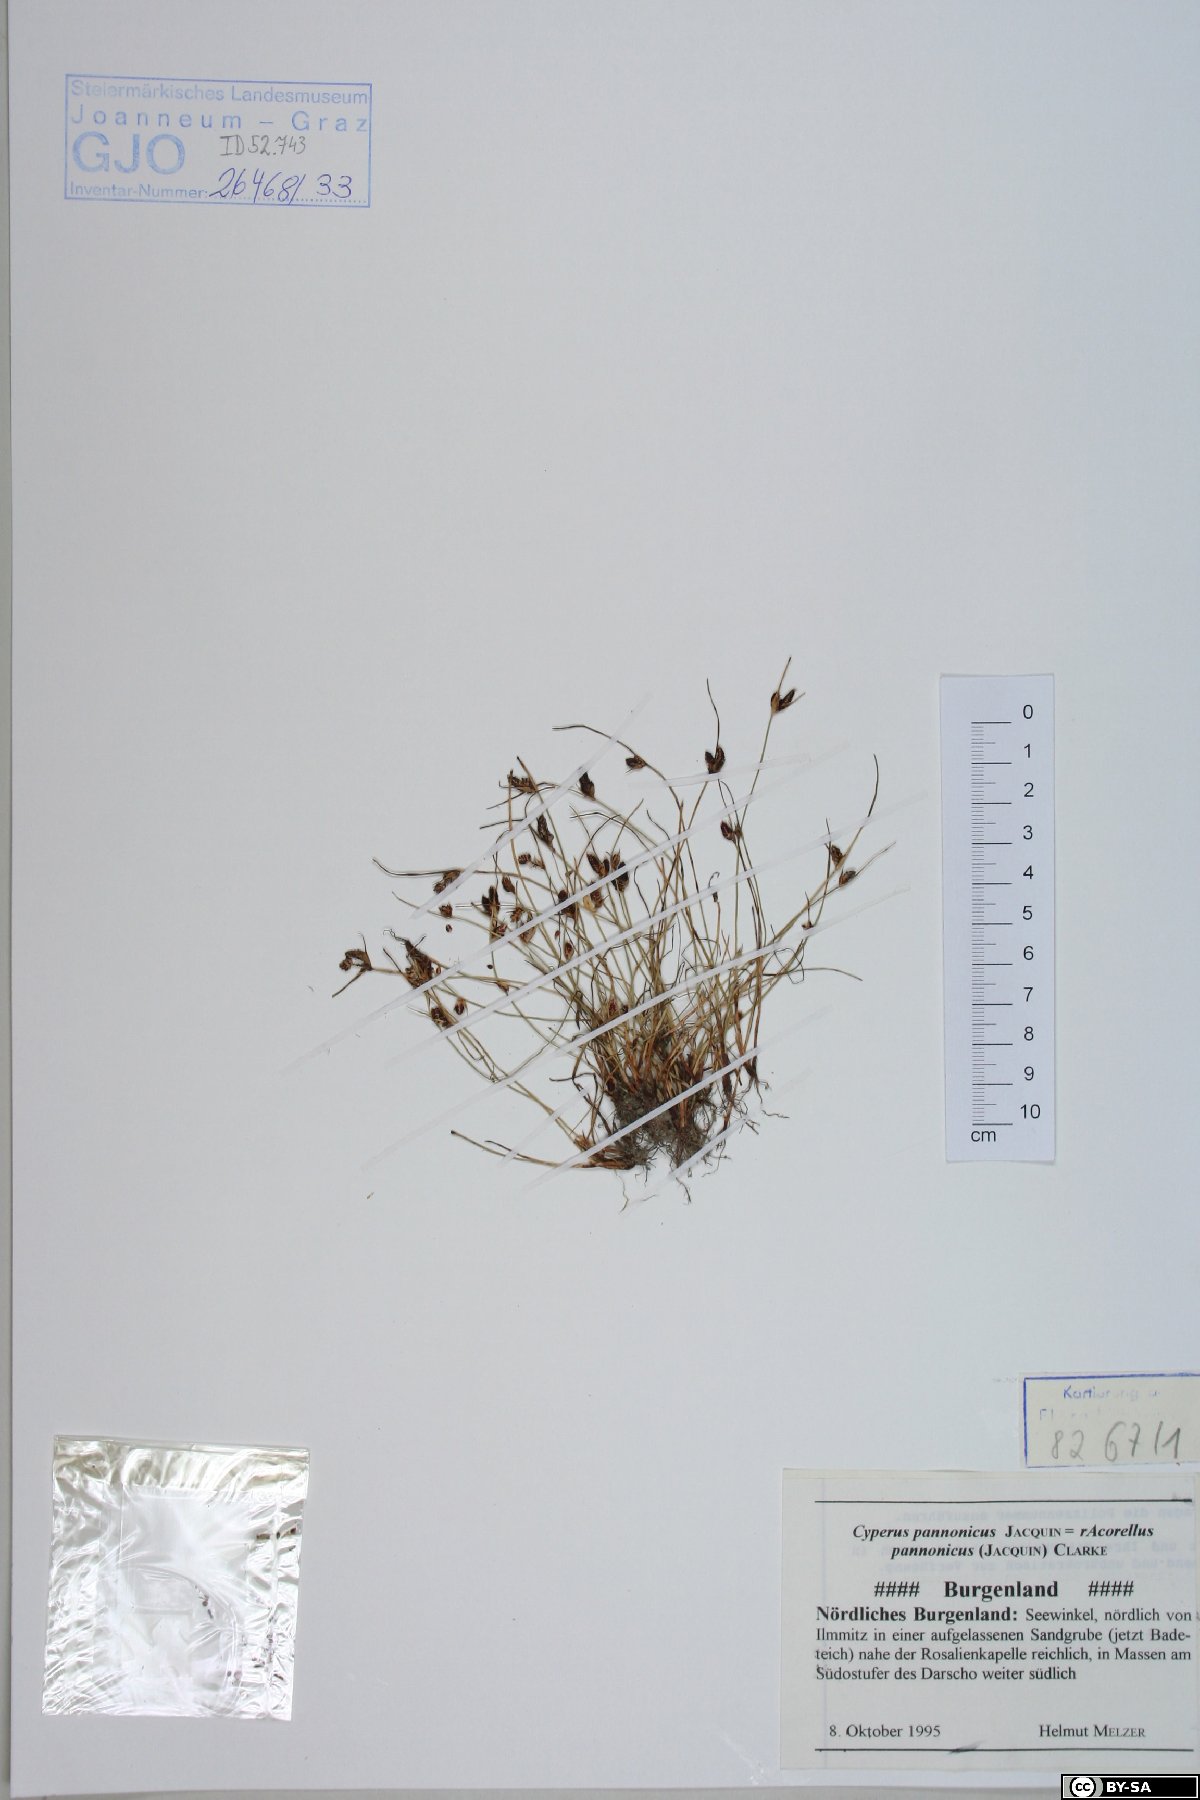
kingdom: Plantae
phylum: Tracheophyta
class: Liliopsida
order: Poales
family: Cyperaceae
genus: Cyperus
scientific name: Cyperus pannonicus
